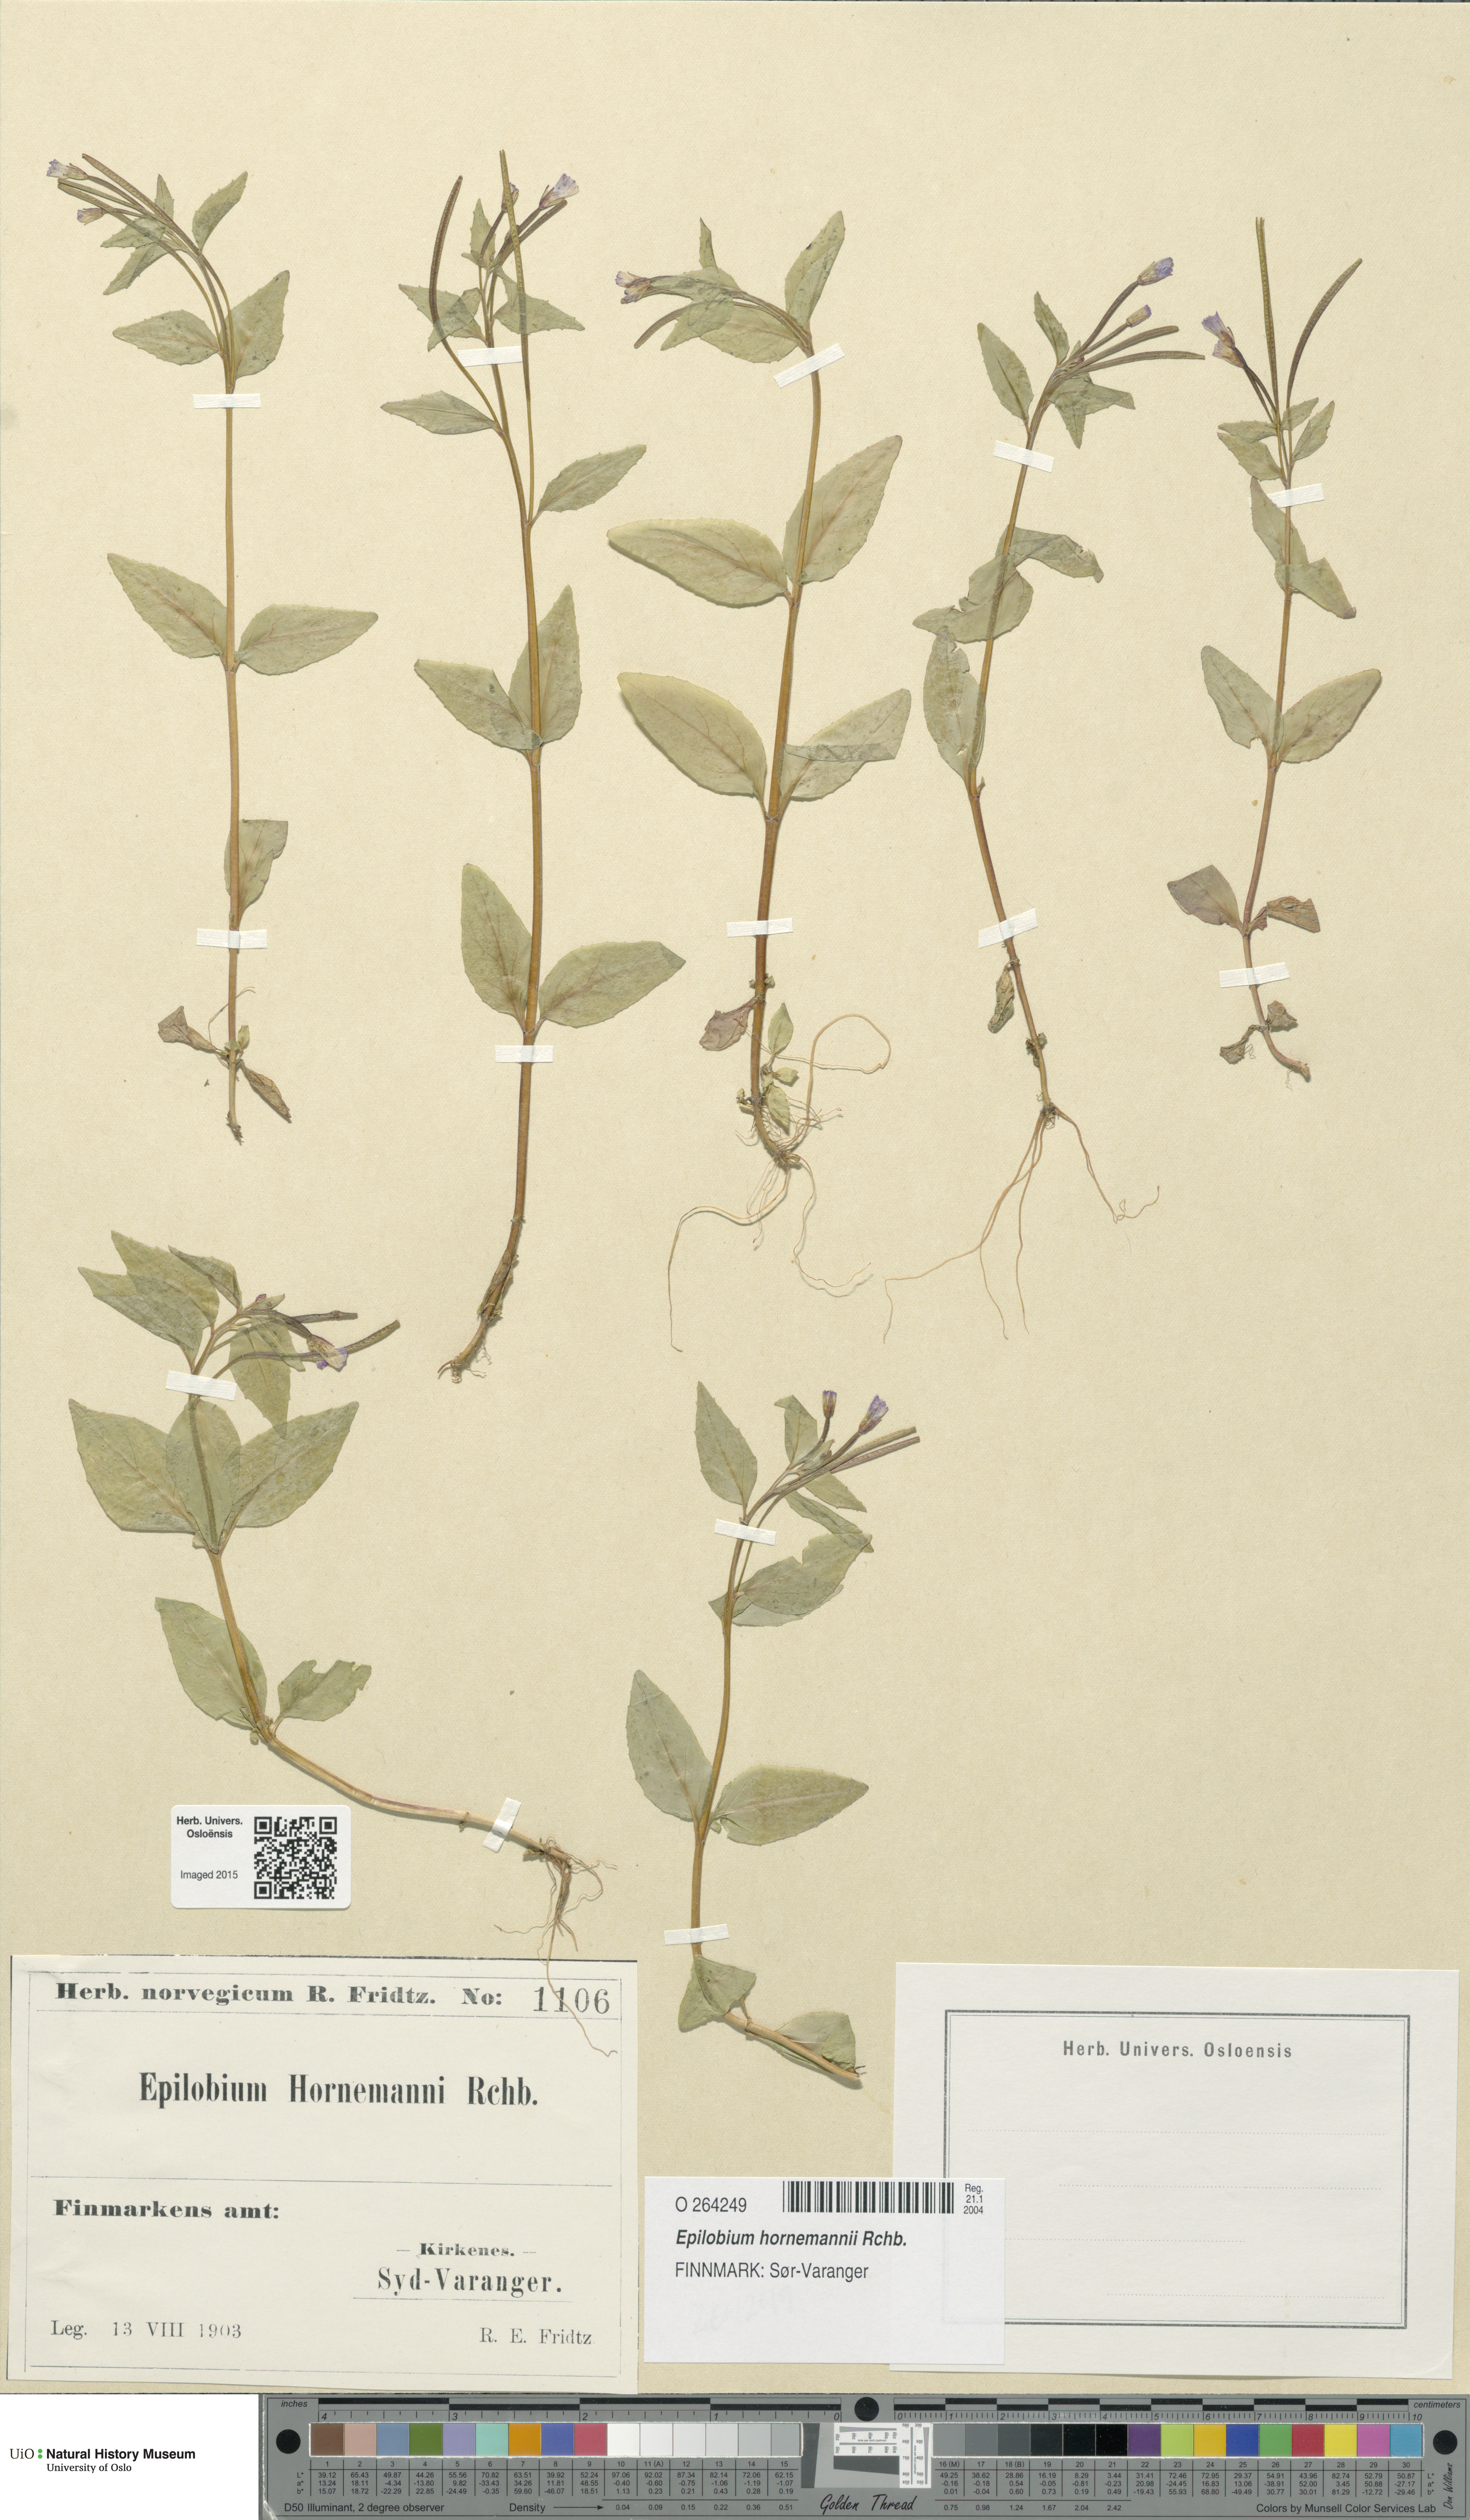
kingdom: Plantae
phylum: Tracheophyta
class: Magnoliopsida
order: Myrtales
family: Onagraceae
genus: Epilobium
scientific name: Epilobium hornemannii
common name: Hornemann's willowherb
